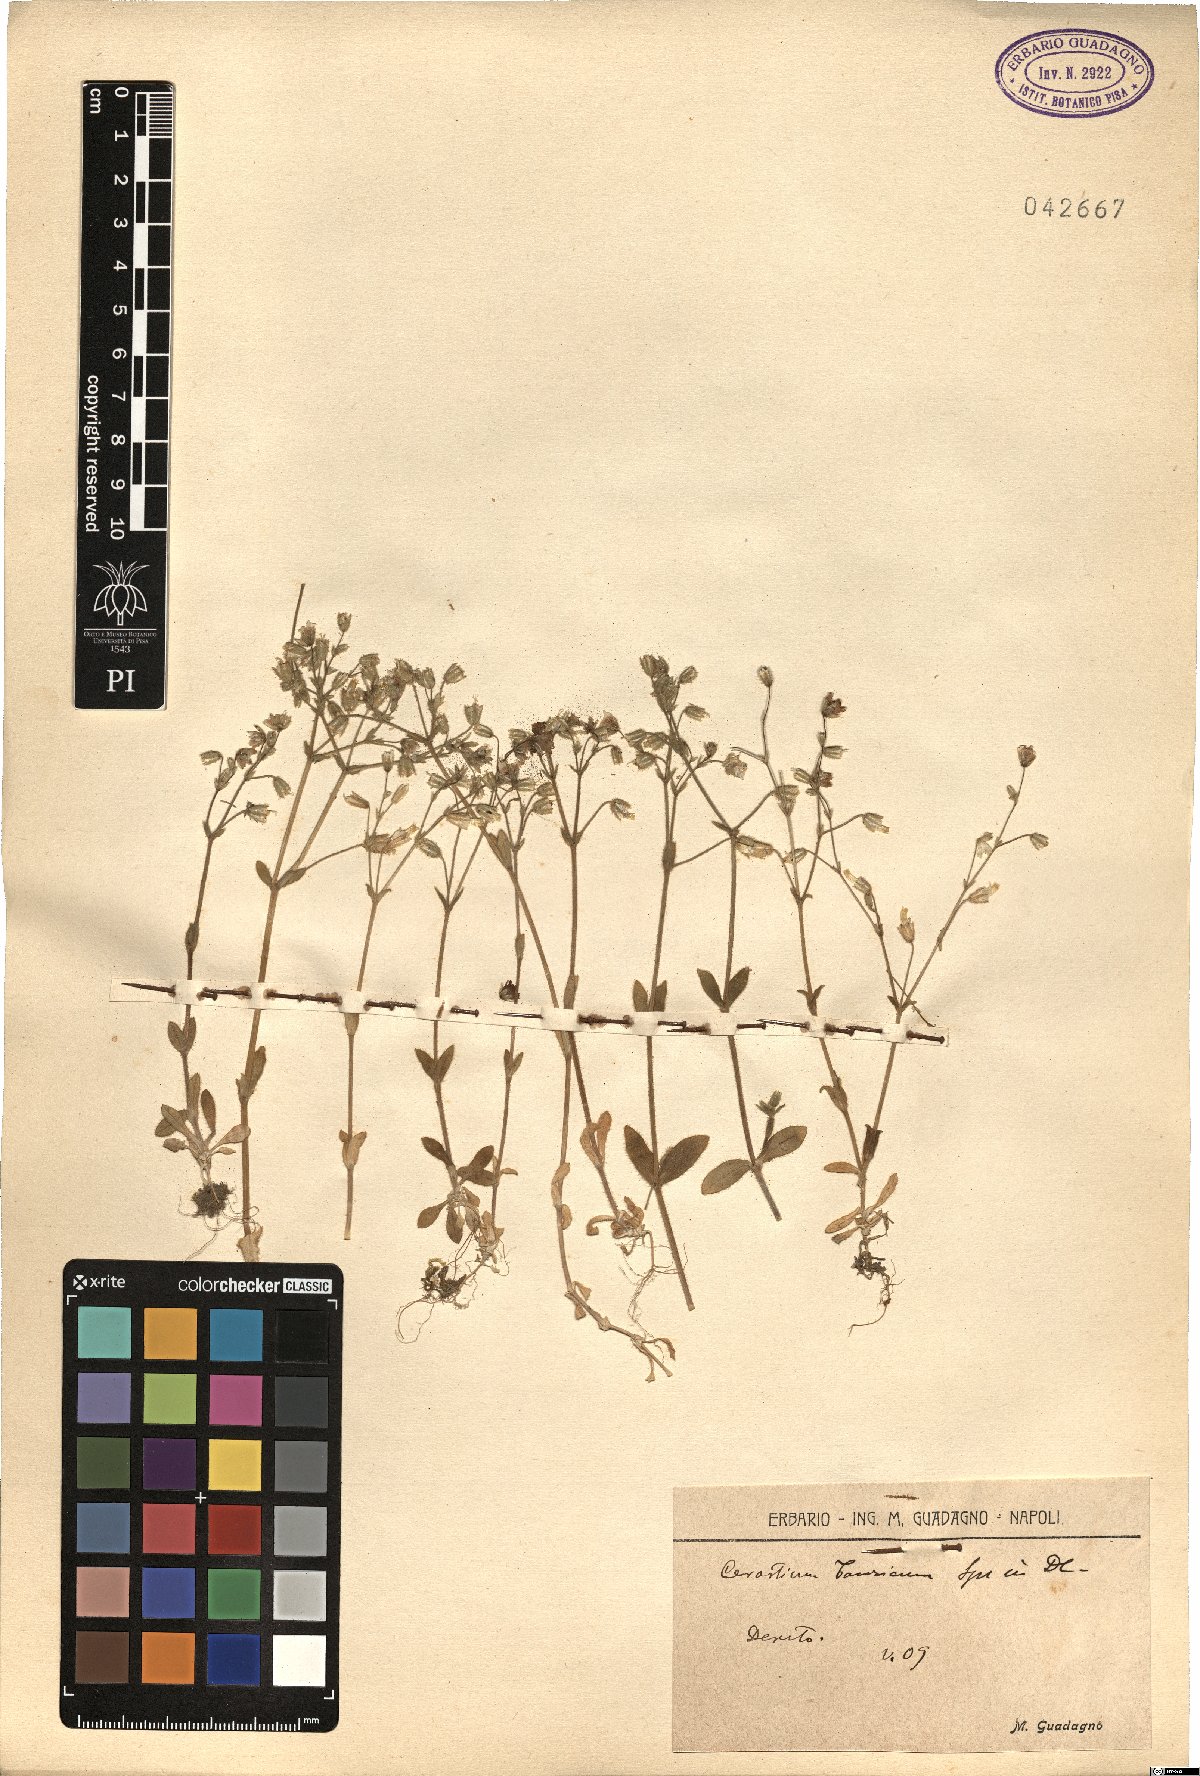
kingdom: Plantae
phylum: Tracheophyta
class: Magnoliopsida
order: Caryophyllales
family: Caryophyllaceae
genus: Cerastium
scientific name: Cerastium brachypetalum
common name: Grey mouse-ear
